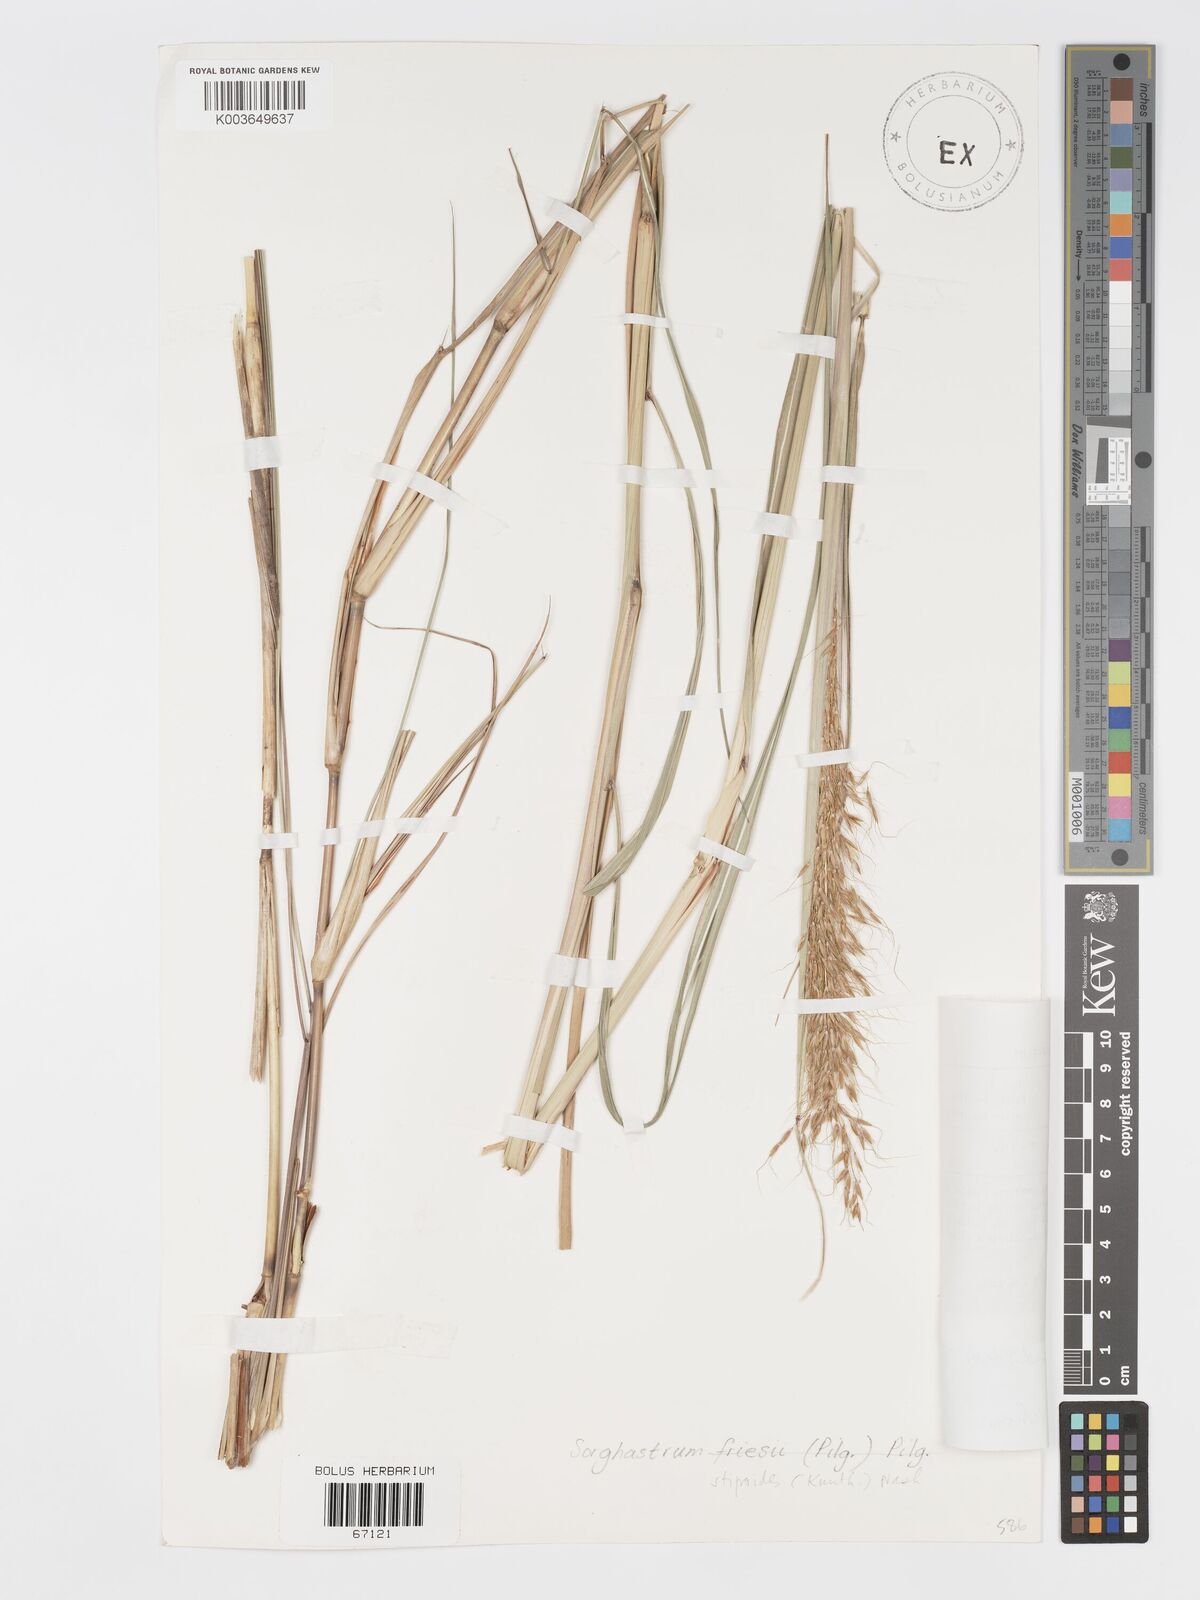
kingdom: Plantae
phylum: Tracheophyta
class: Liliopsida
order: Poales
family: Poaceae
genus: Sorghastrum
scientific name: Sorghastrum stipoides
